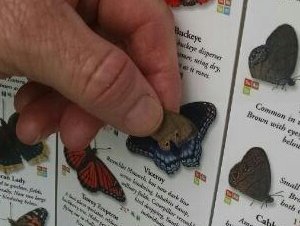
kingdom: Animalia
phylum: Arthropoda
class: Insecta
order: Lepidoptera
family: Nymphalidae
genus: Hermeuptychia
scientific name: Hermeuptychia hermes
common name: Carolina Satyr
